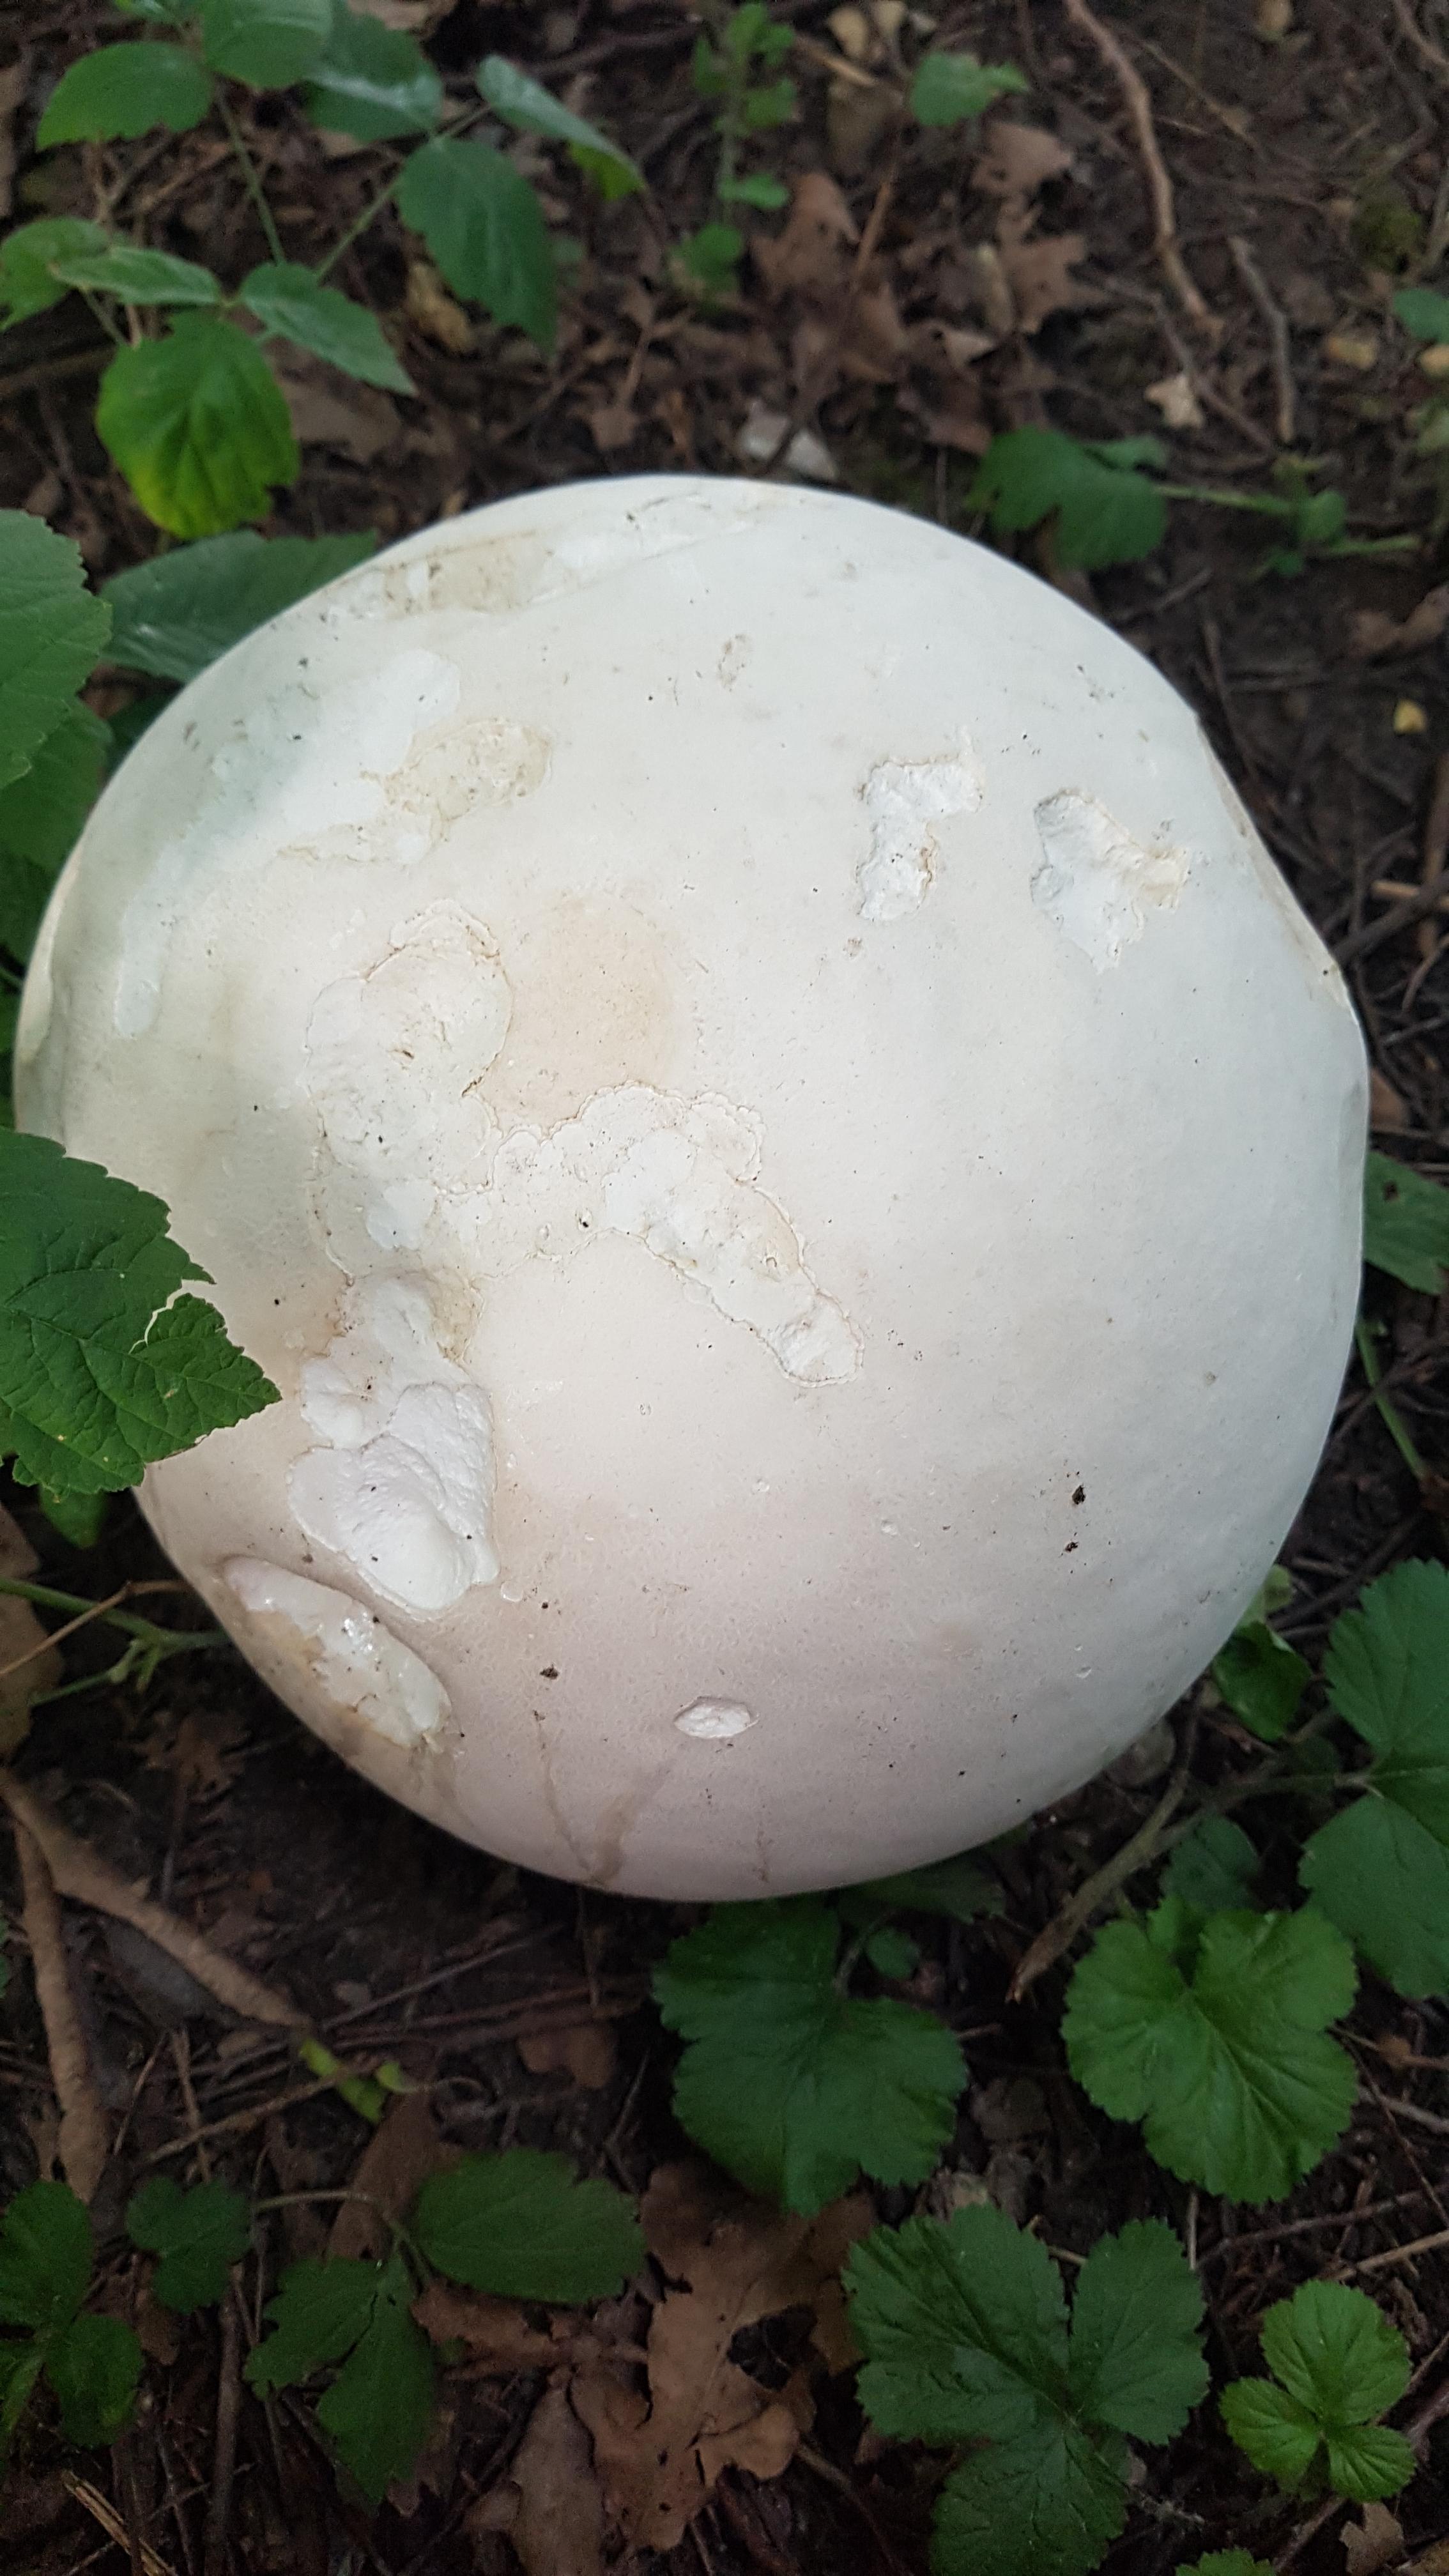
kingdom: Fungi
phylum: Basidiomycota
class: Agaricomycetes
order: Agaricales
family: Lycoperdaceae
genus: Calvatia
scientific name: Calvatia gigantea
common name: kæmpestøvbold
